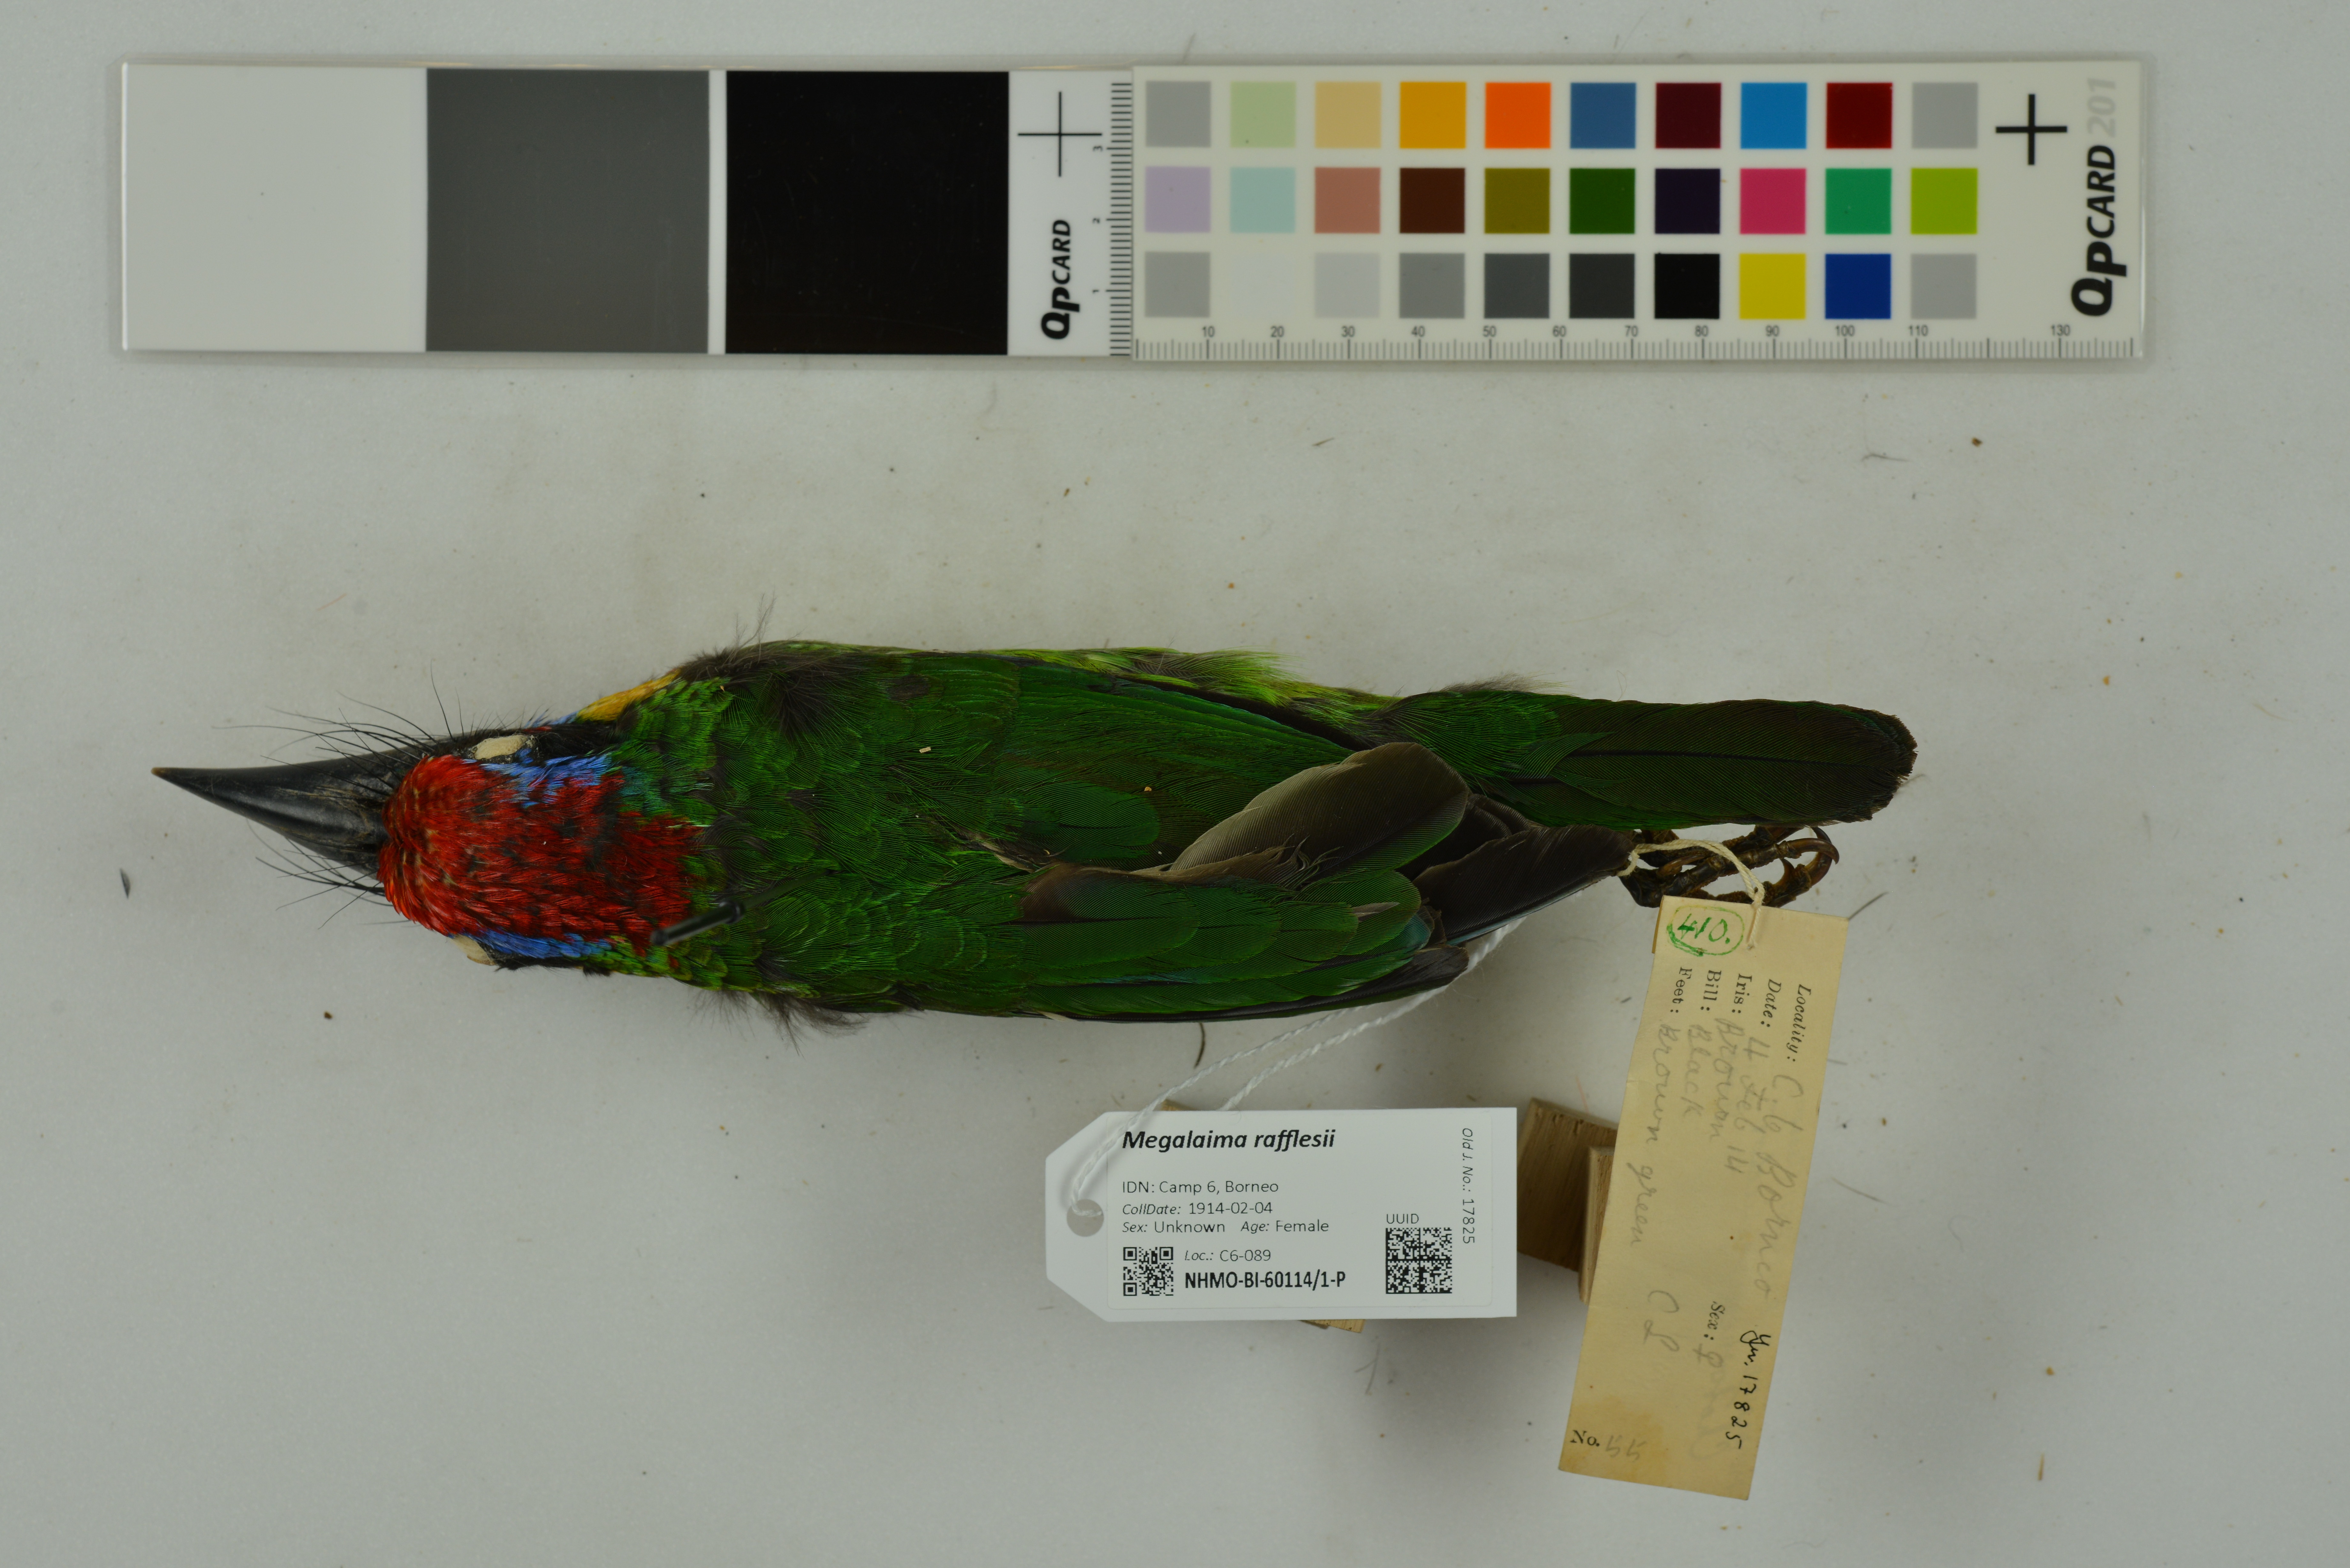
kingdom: Animalia
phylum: Chordata
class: Aves
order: Piciformes
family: Megalaimidae
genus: Psilopogon
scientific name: Psilopogon rafflesii
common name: Red-crowned barbet
